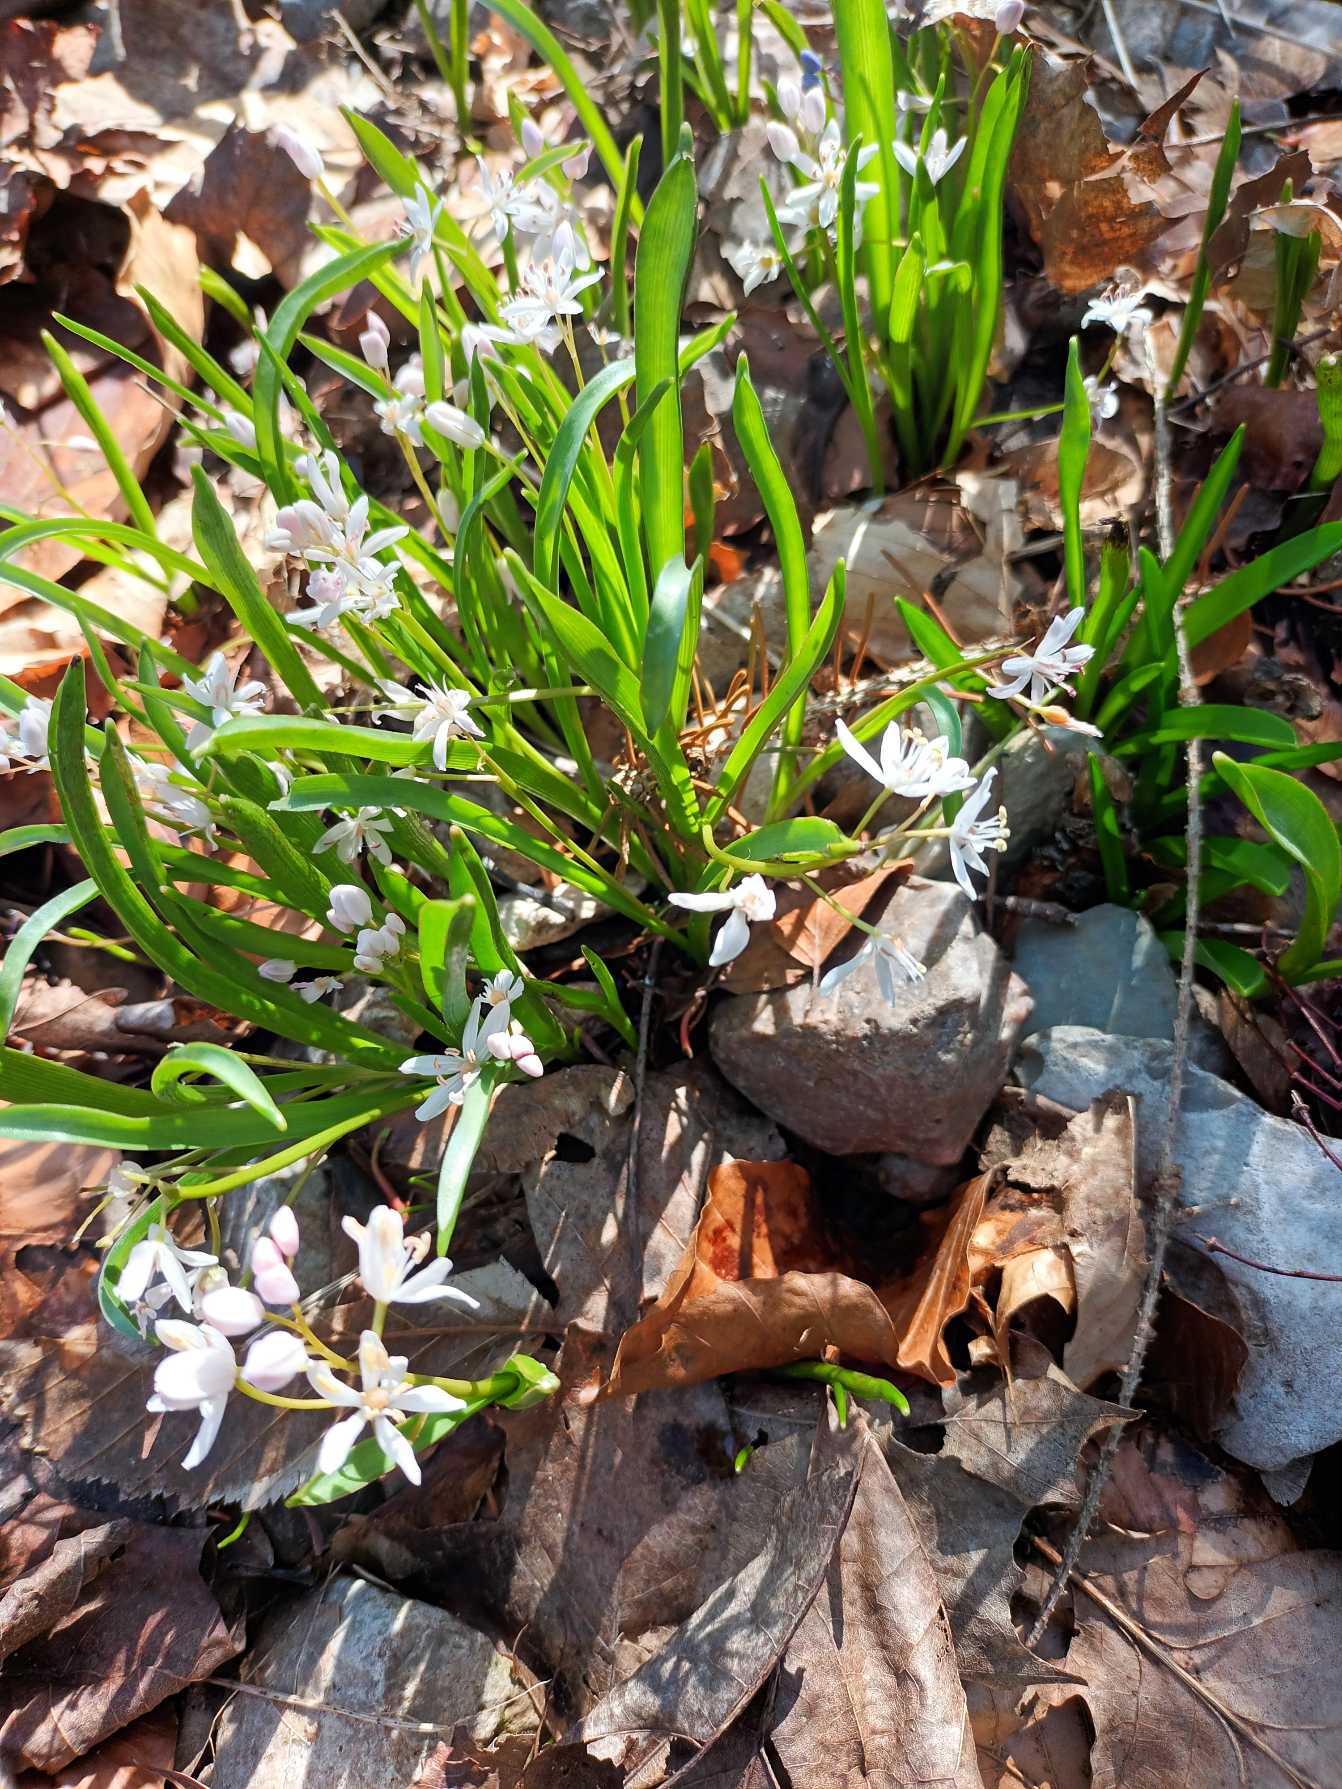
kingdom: Plantae
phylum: Tracheophyta
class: Liliopsida
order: Asparagales
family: Asparagaceae
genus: Scilla
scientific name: Scilla bifolia
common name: Tobladet skilla
